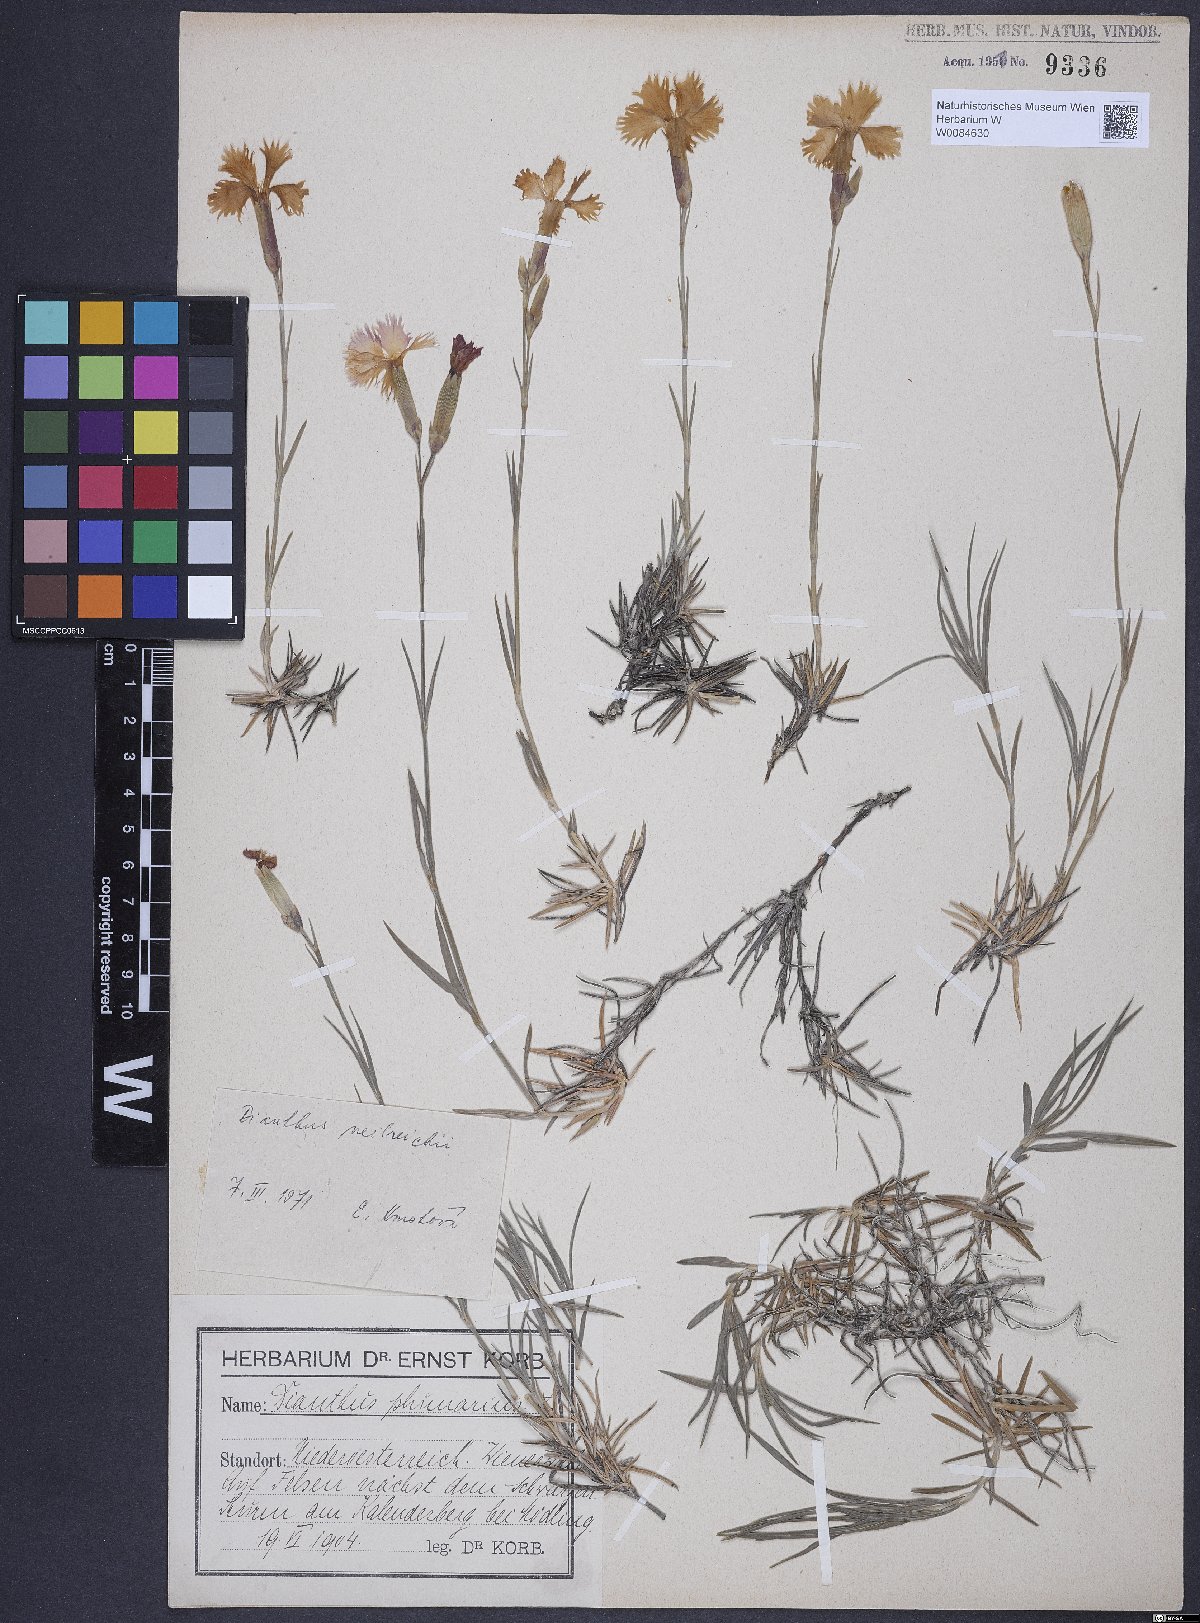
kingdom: Plantae
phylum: Tracheophyta
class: Magnoliopsida
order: Caryophyllales
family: Caryophyllaceae
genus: Dianthus
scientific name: Dianthus plumarius
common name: Pink
